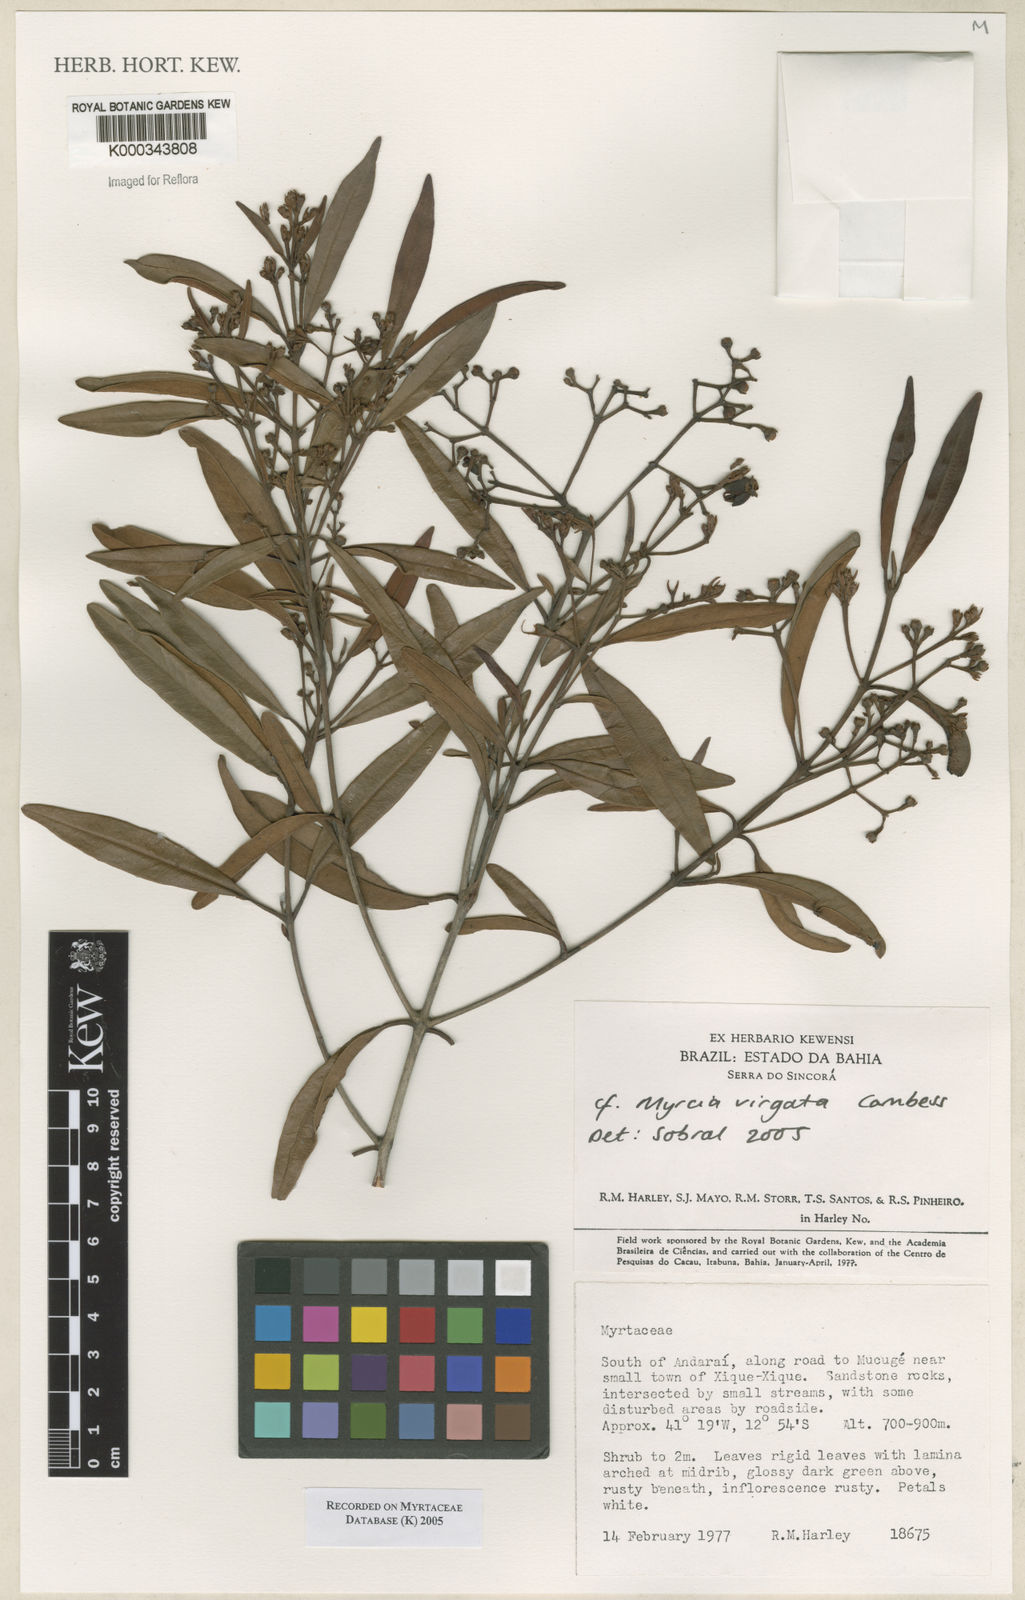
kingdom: Plantae
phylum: Tracheophyta
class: Magnoliopsida
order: Myrtales
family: Myrtaceae
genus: Myrcia
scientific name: Myrcia virgata
